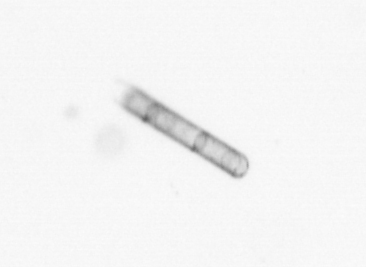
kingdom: Chromista
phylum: Ochrophyta
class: Bacillariophyceae
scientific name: Bacillariophyceae
